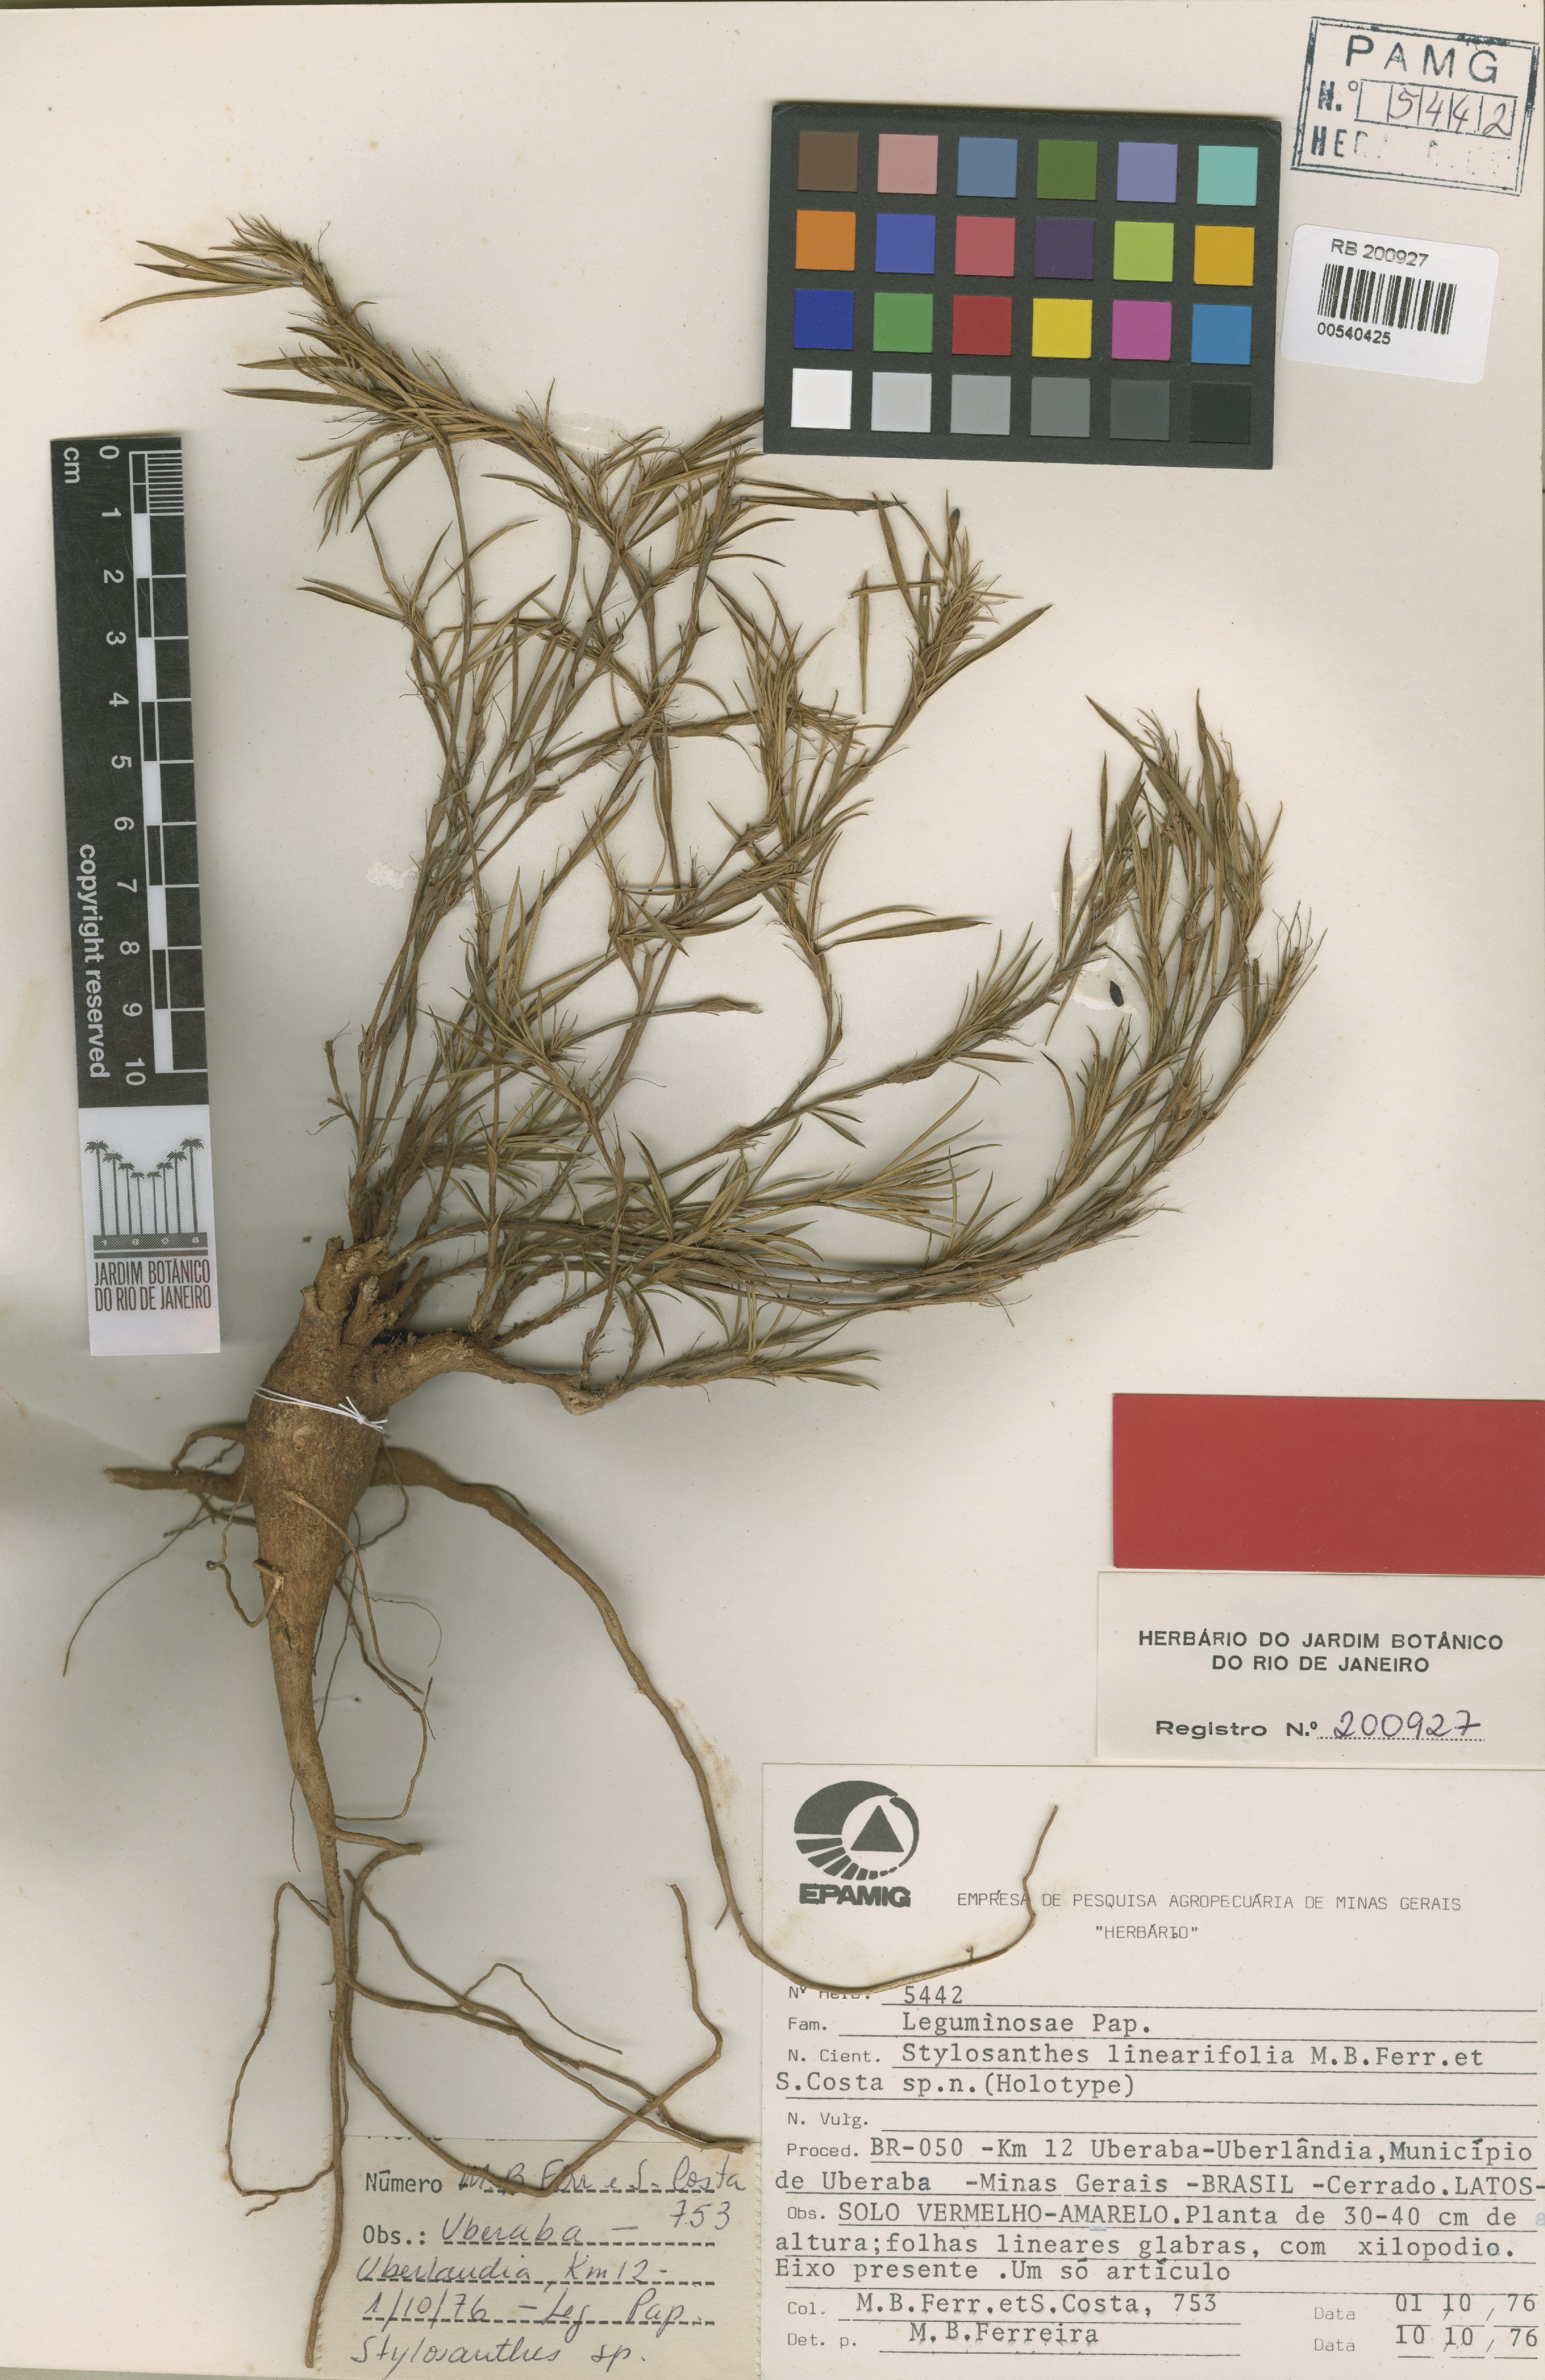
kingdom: Plantae
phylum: Tracheophyta
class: Magnoliopsida
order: Fabales
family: Fabaceae
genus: Stylosanthes
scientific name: Stylosanthes linearifolia
